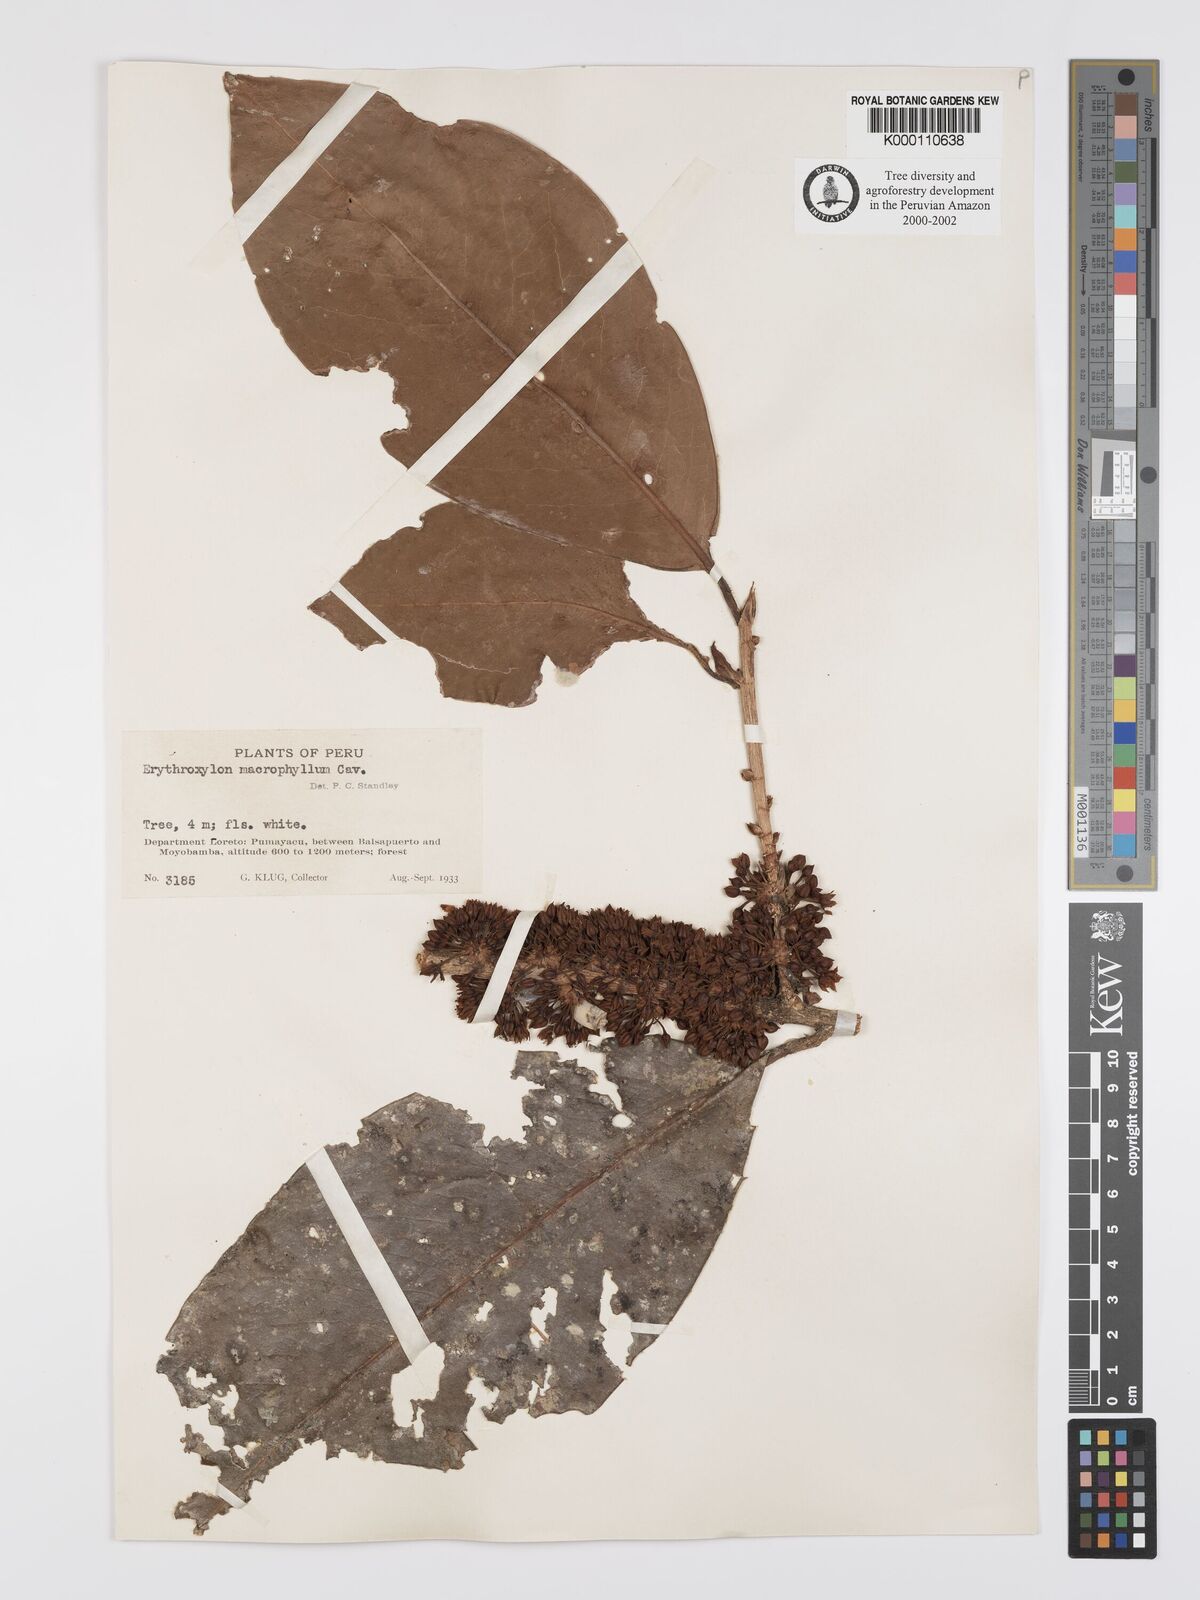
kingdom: Plantae
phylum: Tracheophyta
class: Magnoliopsida
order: Malpighiales
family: Erythroxylaceae
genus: Erythroxylum
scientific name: Erythroxylum
